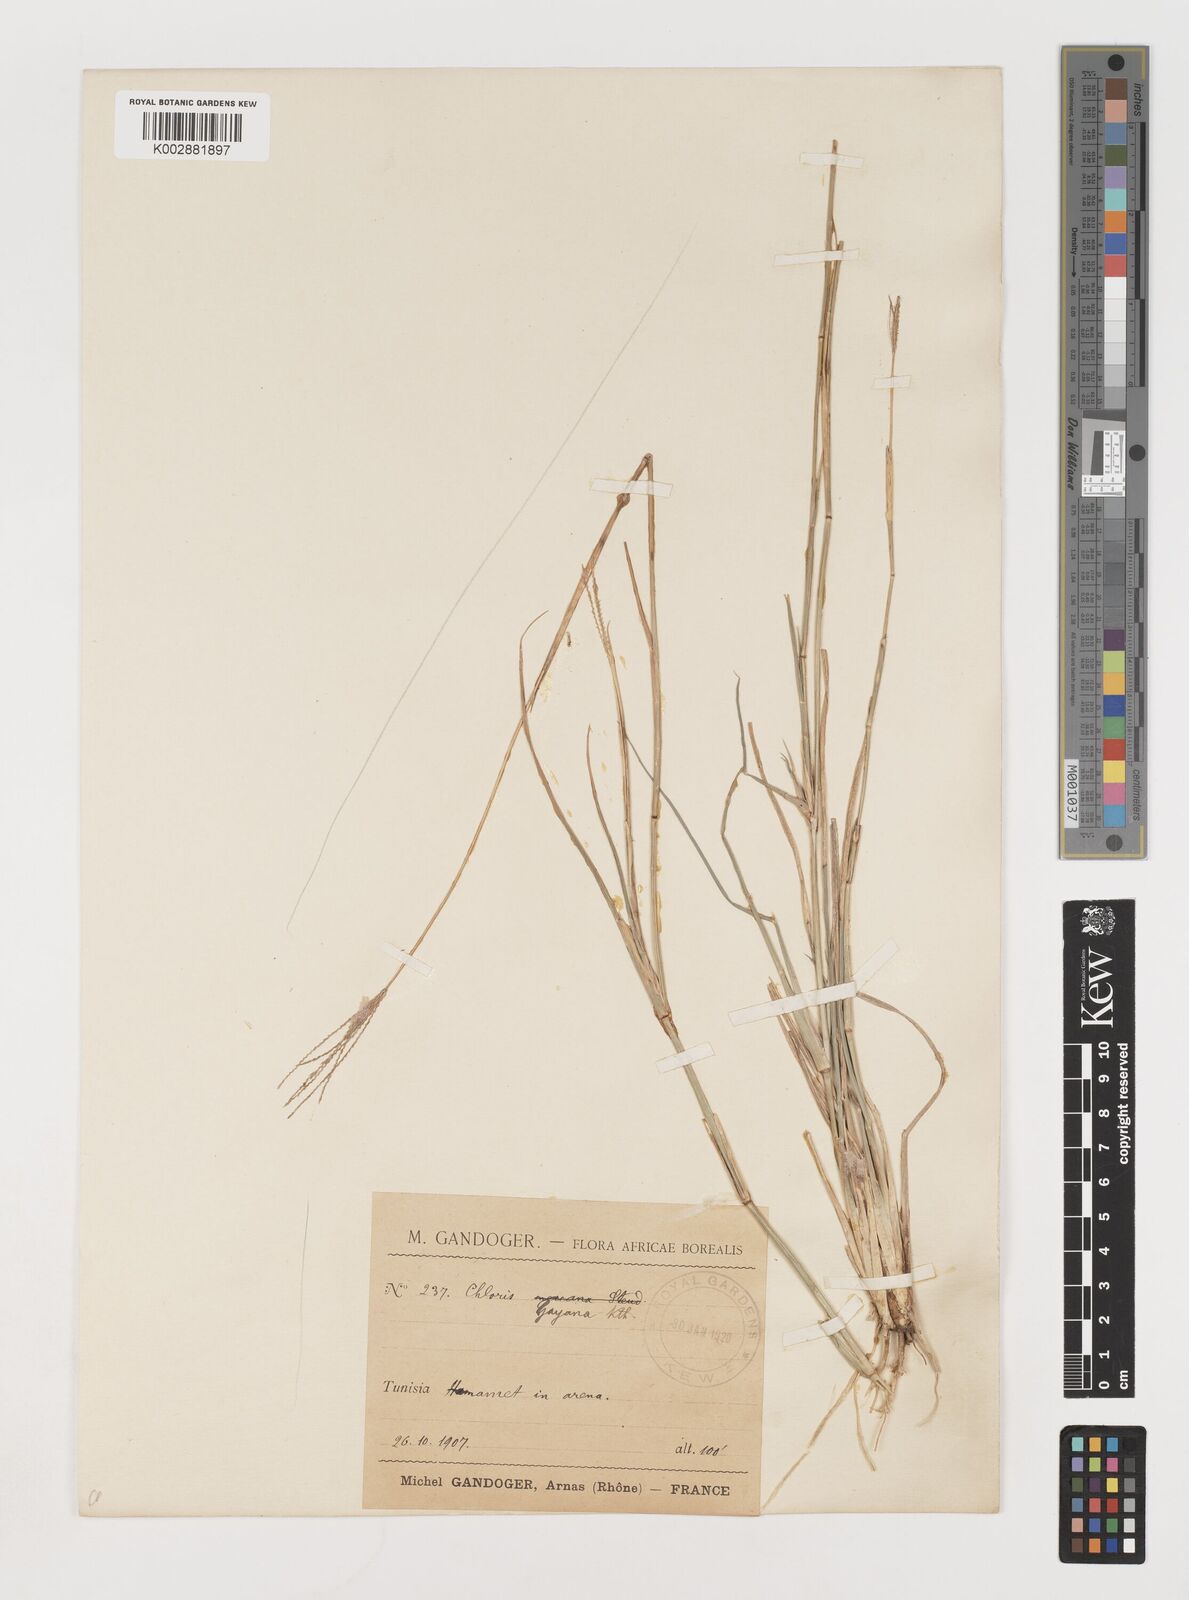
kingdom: Plantae
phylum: Tracheophyta
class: Liliopsida
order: Poales
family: Poaceae
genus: Chloris
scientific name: Chloris gayana
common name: Rhodes grass
